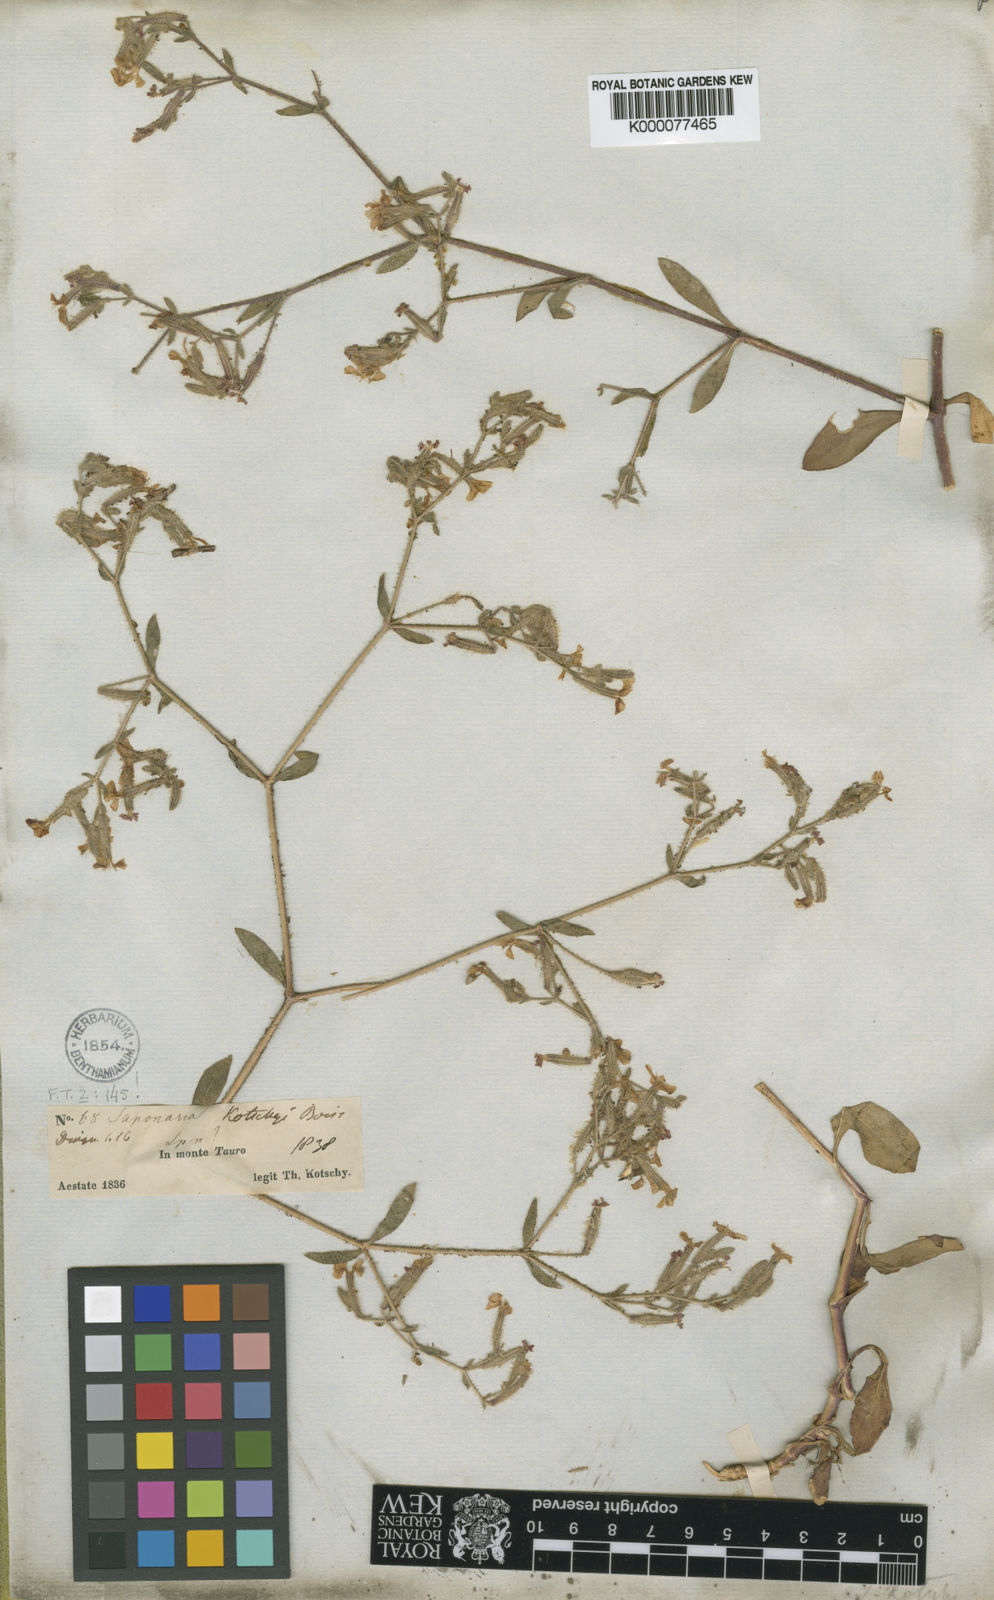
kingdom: Plantae
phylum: Tracheophyta
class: Magnoliopsida
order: Caryophyllales
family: Caryophyllaceae
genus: Saponaria
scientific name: Saponaria kotschyi
